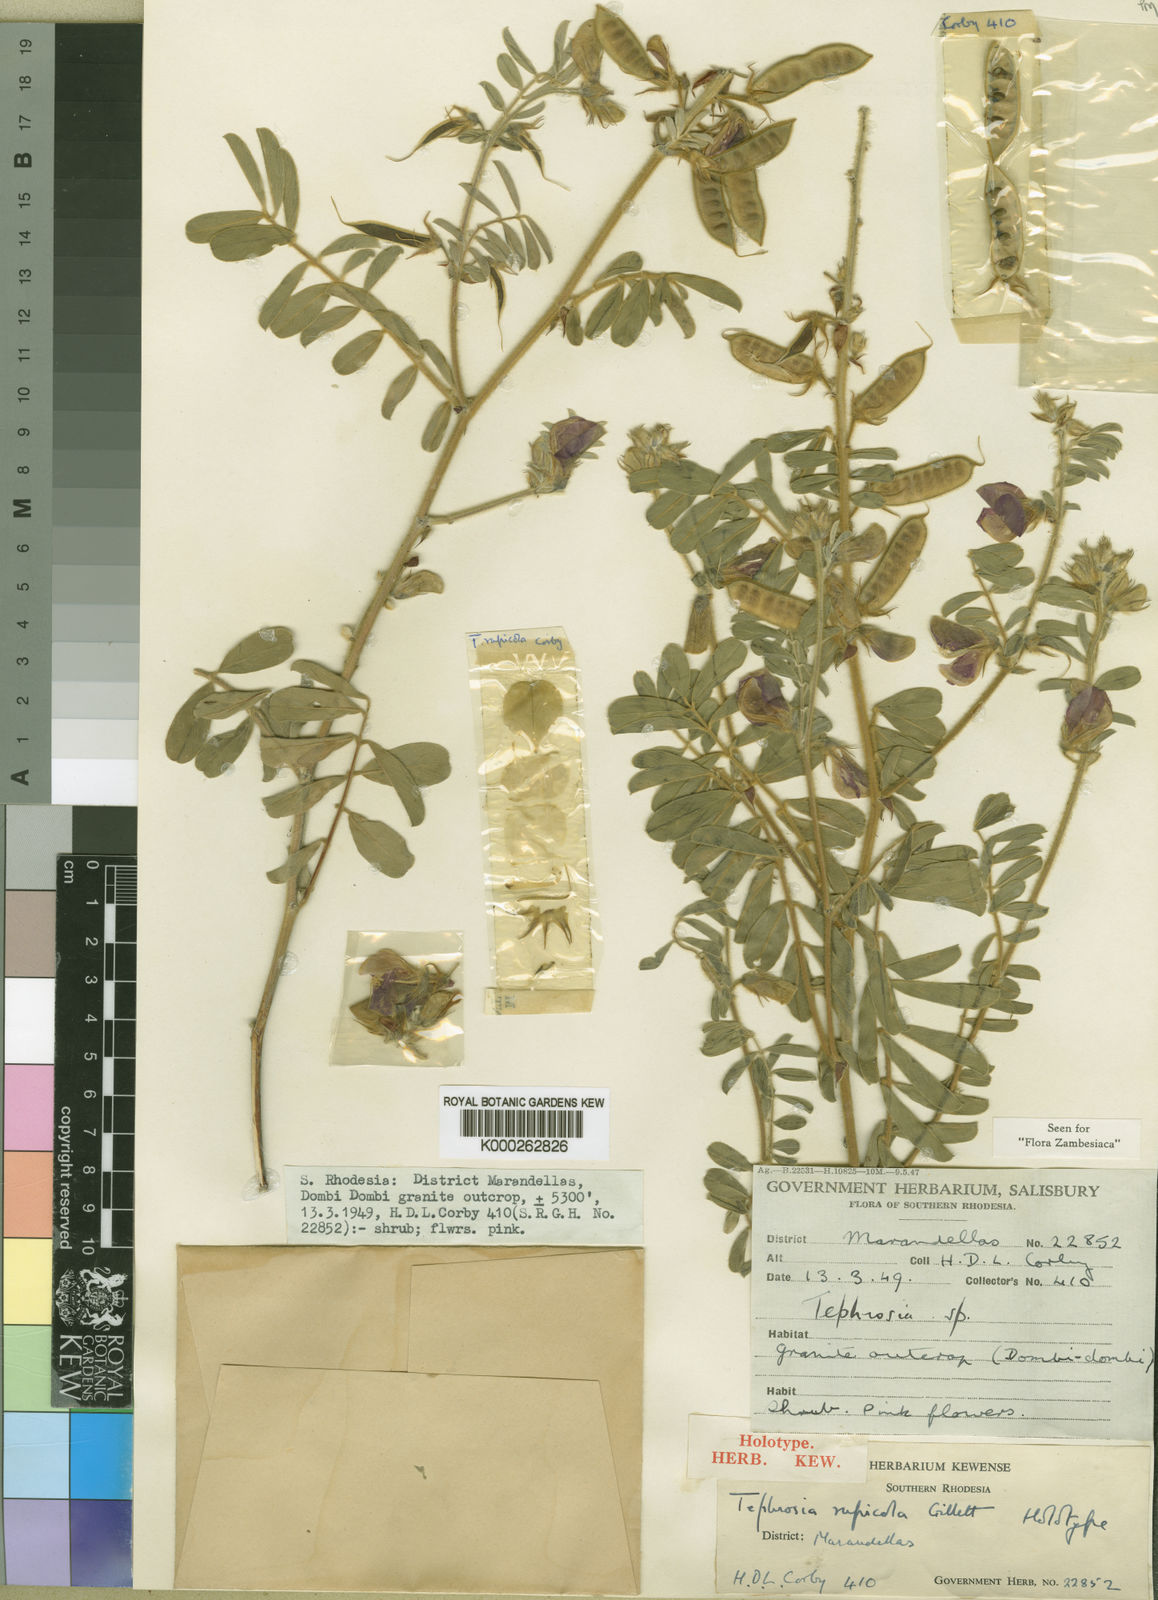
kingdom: Plantae
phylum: Tracheophyta
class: Magnoliopsida
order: Fabales
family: Fabaceae
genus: Tephrosia
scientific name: Tephrosia rupicola
